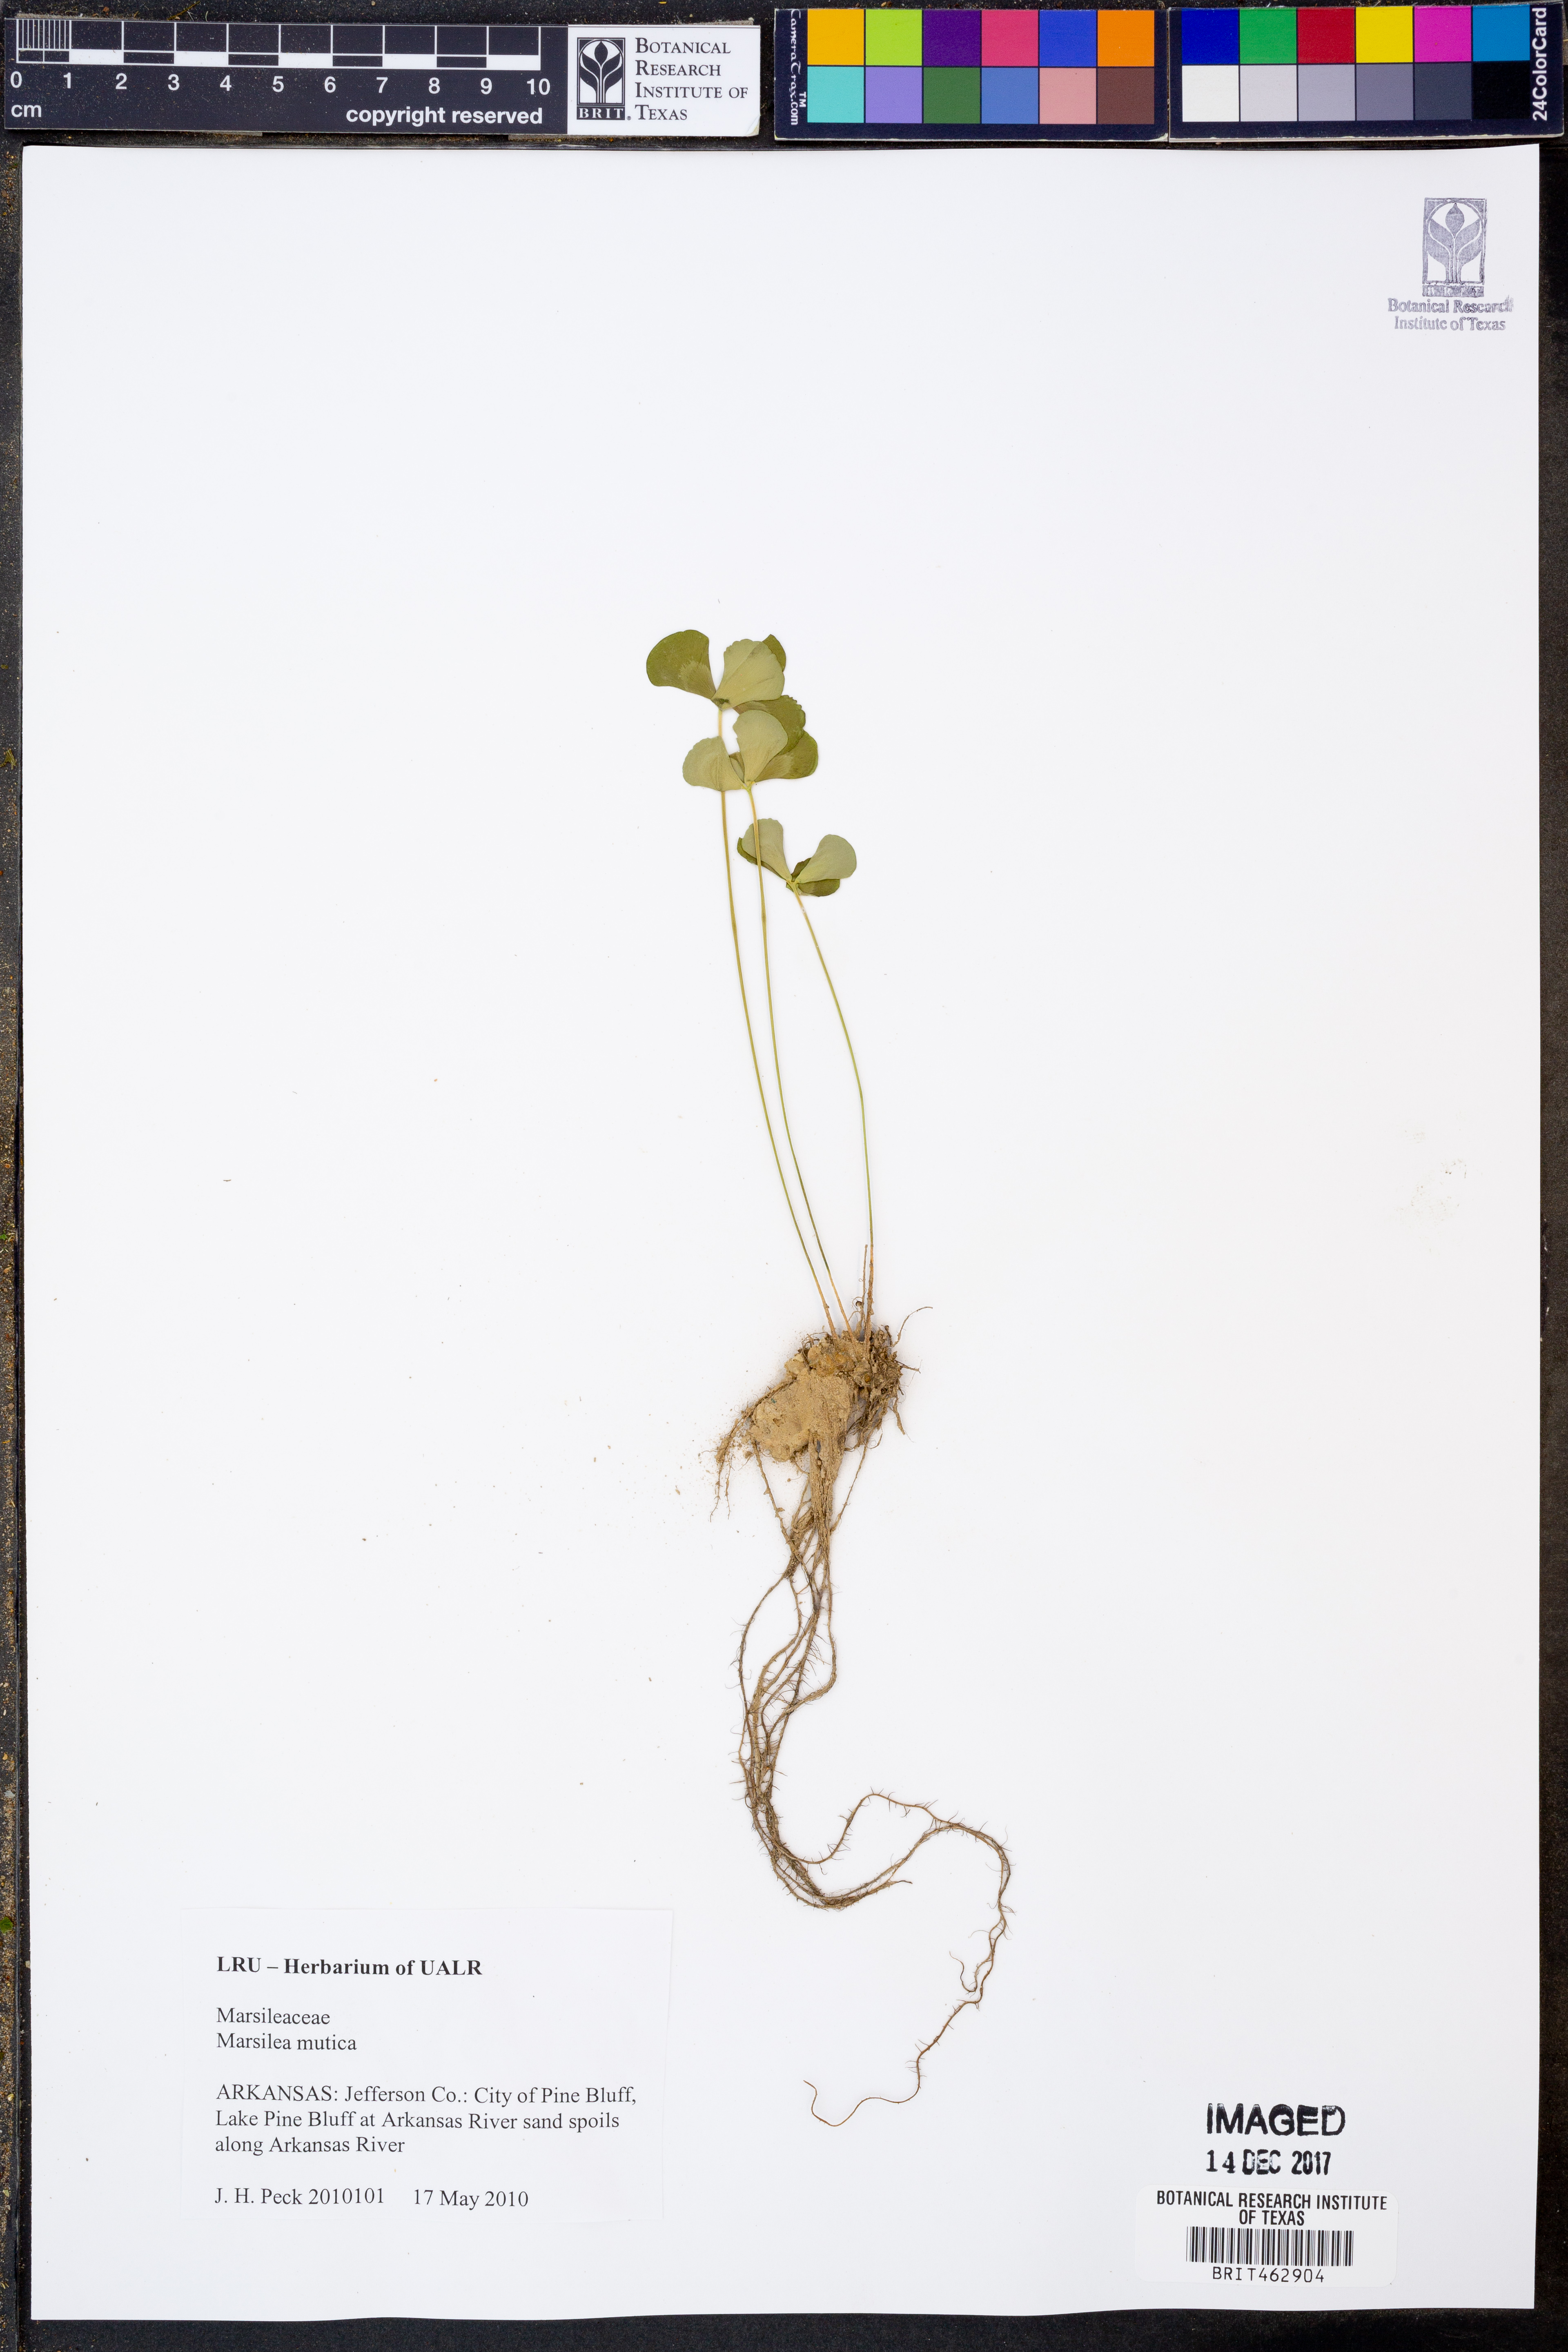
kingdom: Plantae
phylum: Tracheophyta
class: Polypodiopsida
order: Salviniales
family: Marsileaceae
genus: Marsilea
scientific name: Marsilea mutica
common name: Australian water-clover
